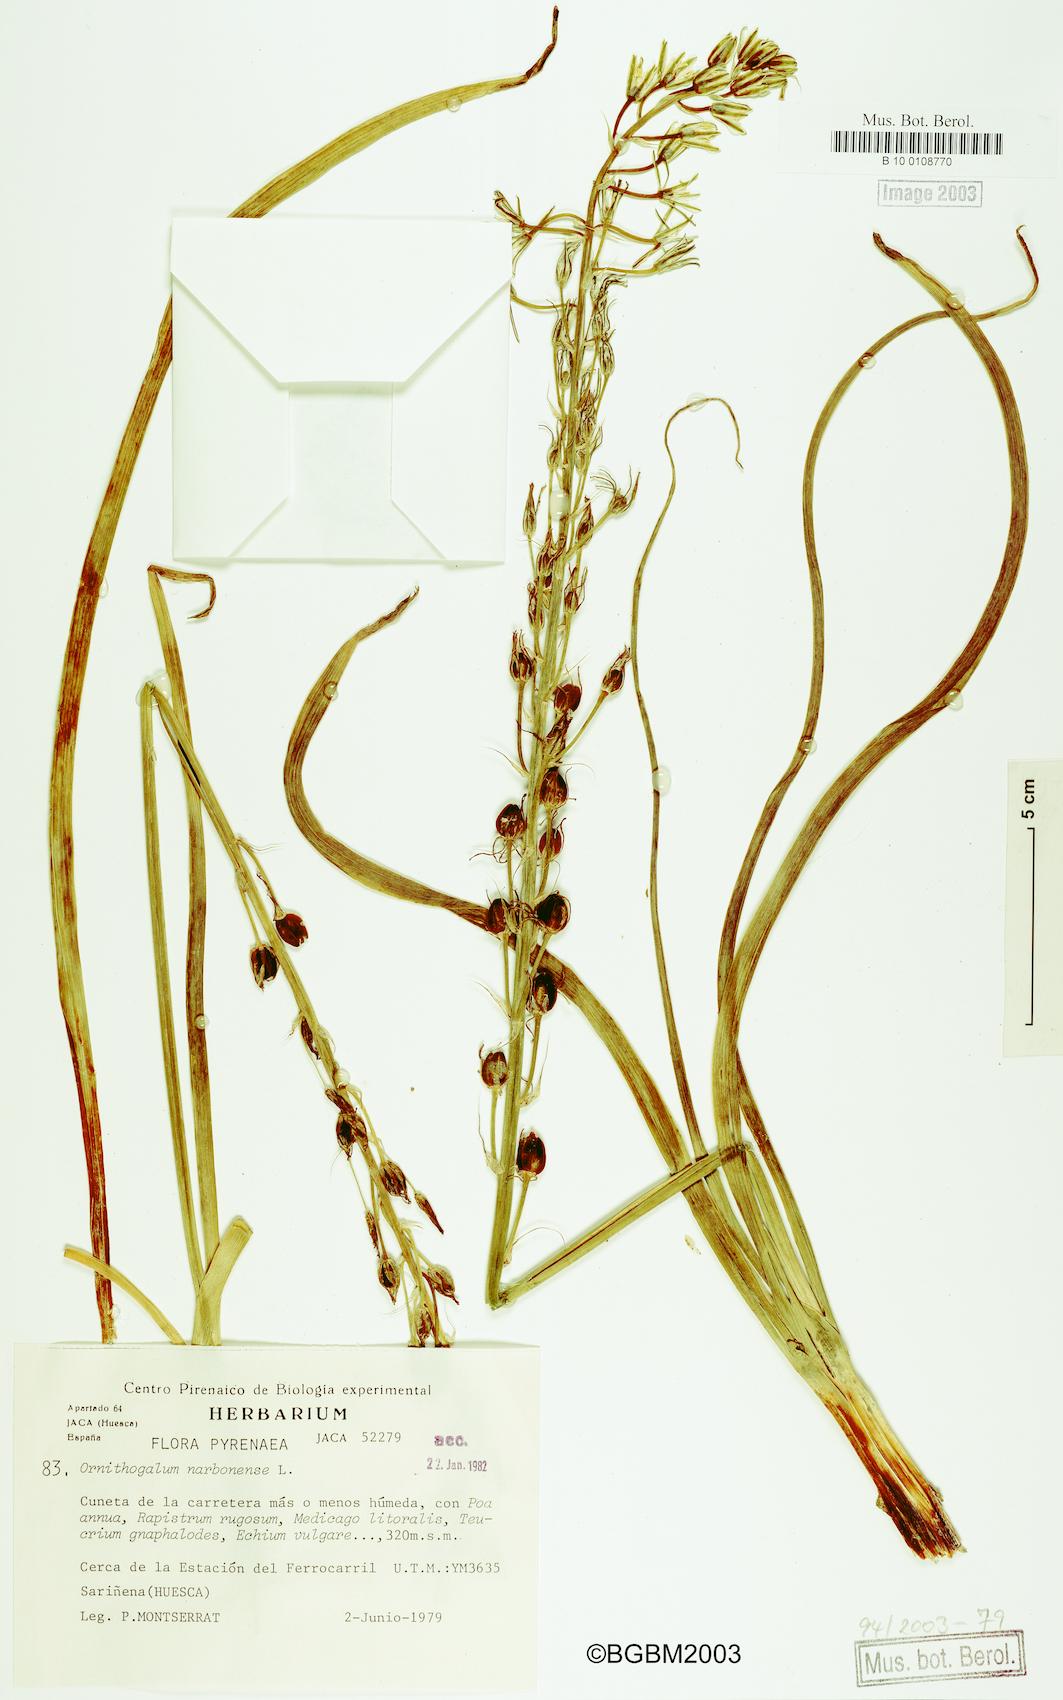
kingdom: Plantae
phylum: Tracheophyta
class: Liliopsida
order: Asparagales
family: Asparagaceae
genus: Ornithogalum
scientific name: Ornithogalum narbonense
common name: Bath-asparagus
